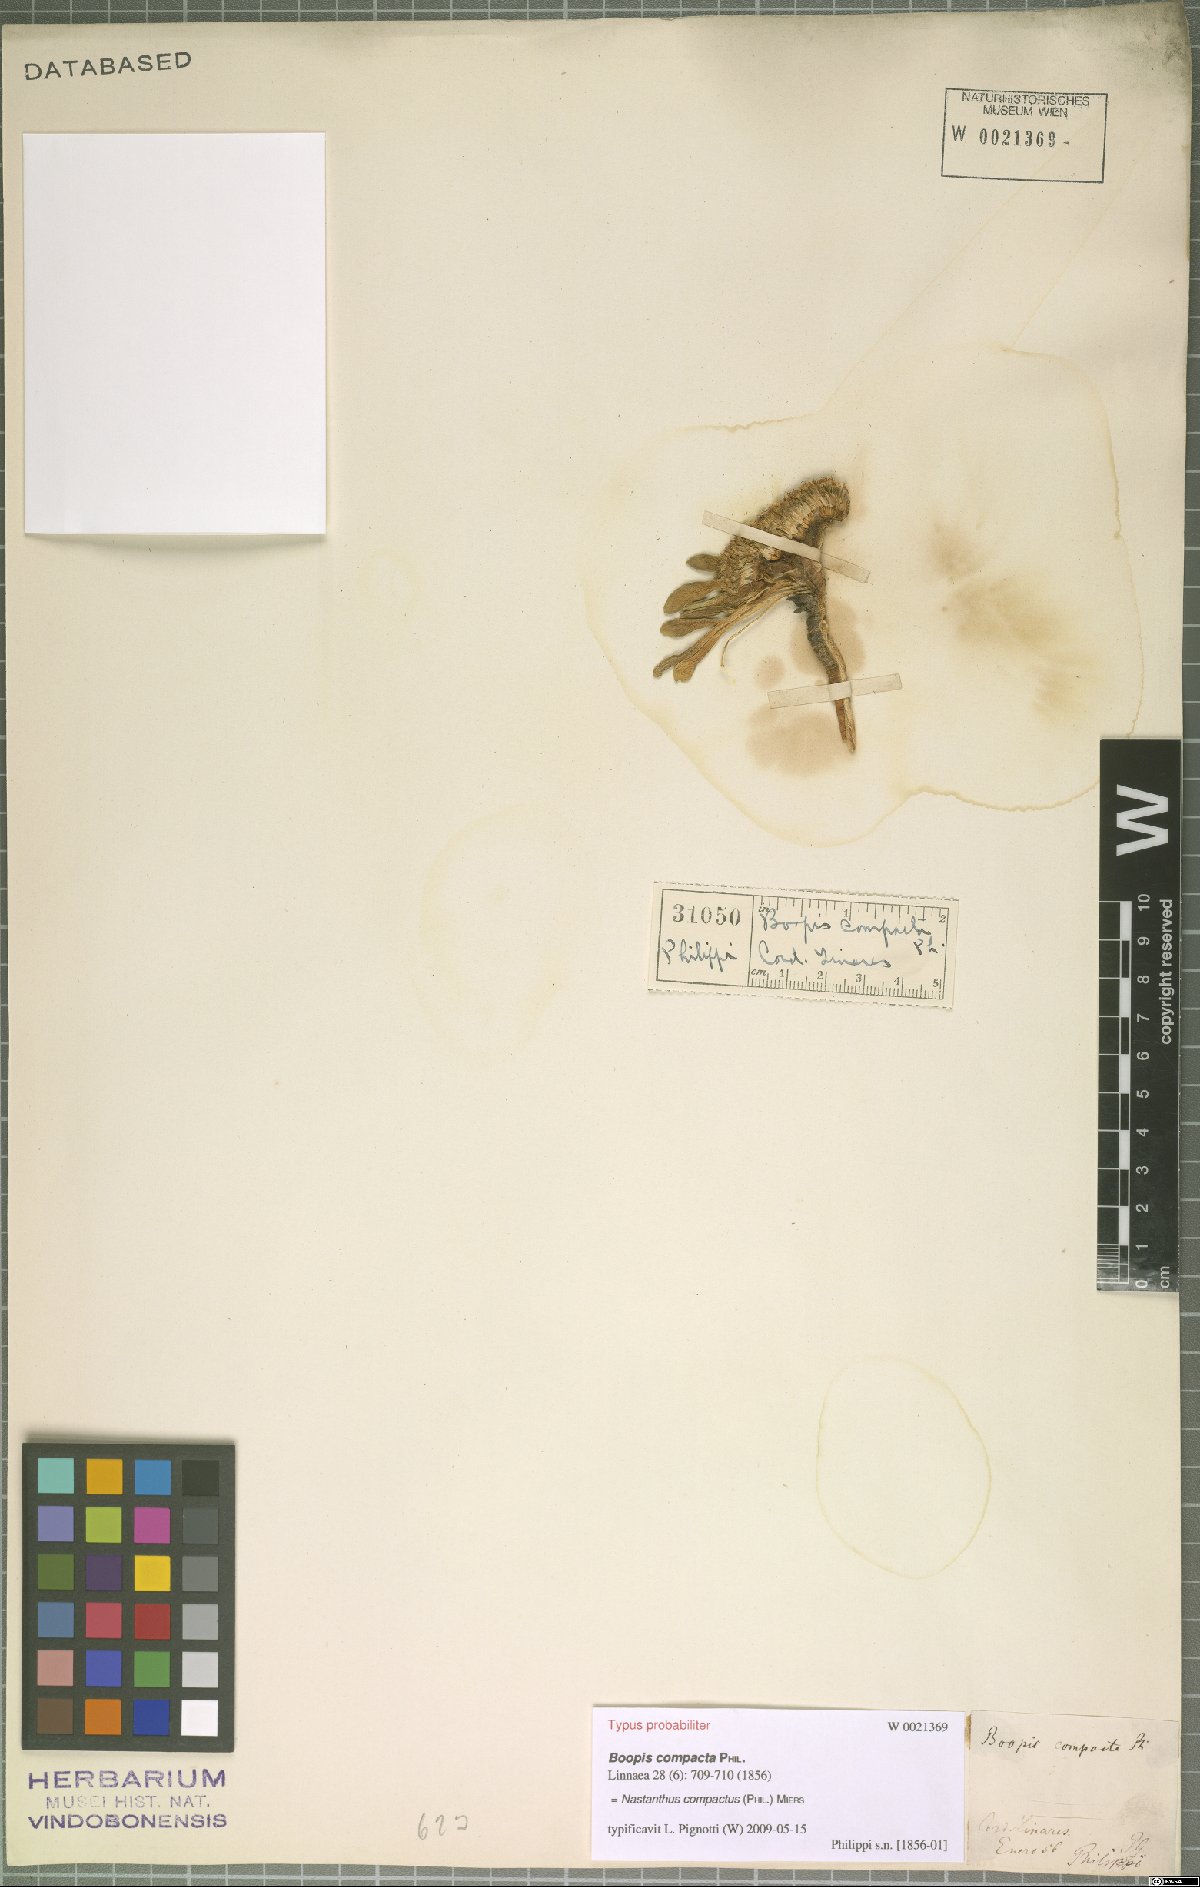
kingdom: Plantae
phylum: Tracheophyta
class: Magnoliopsida
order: Asterales
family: Calyceraceae
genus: Gamocarpha
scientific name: Gamocarpha compacta
